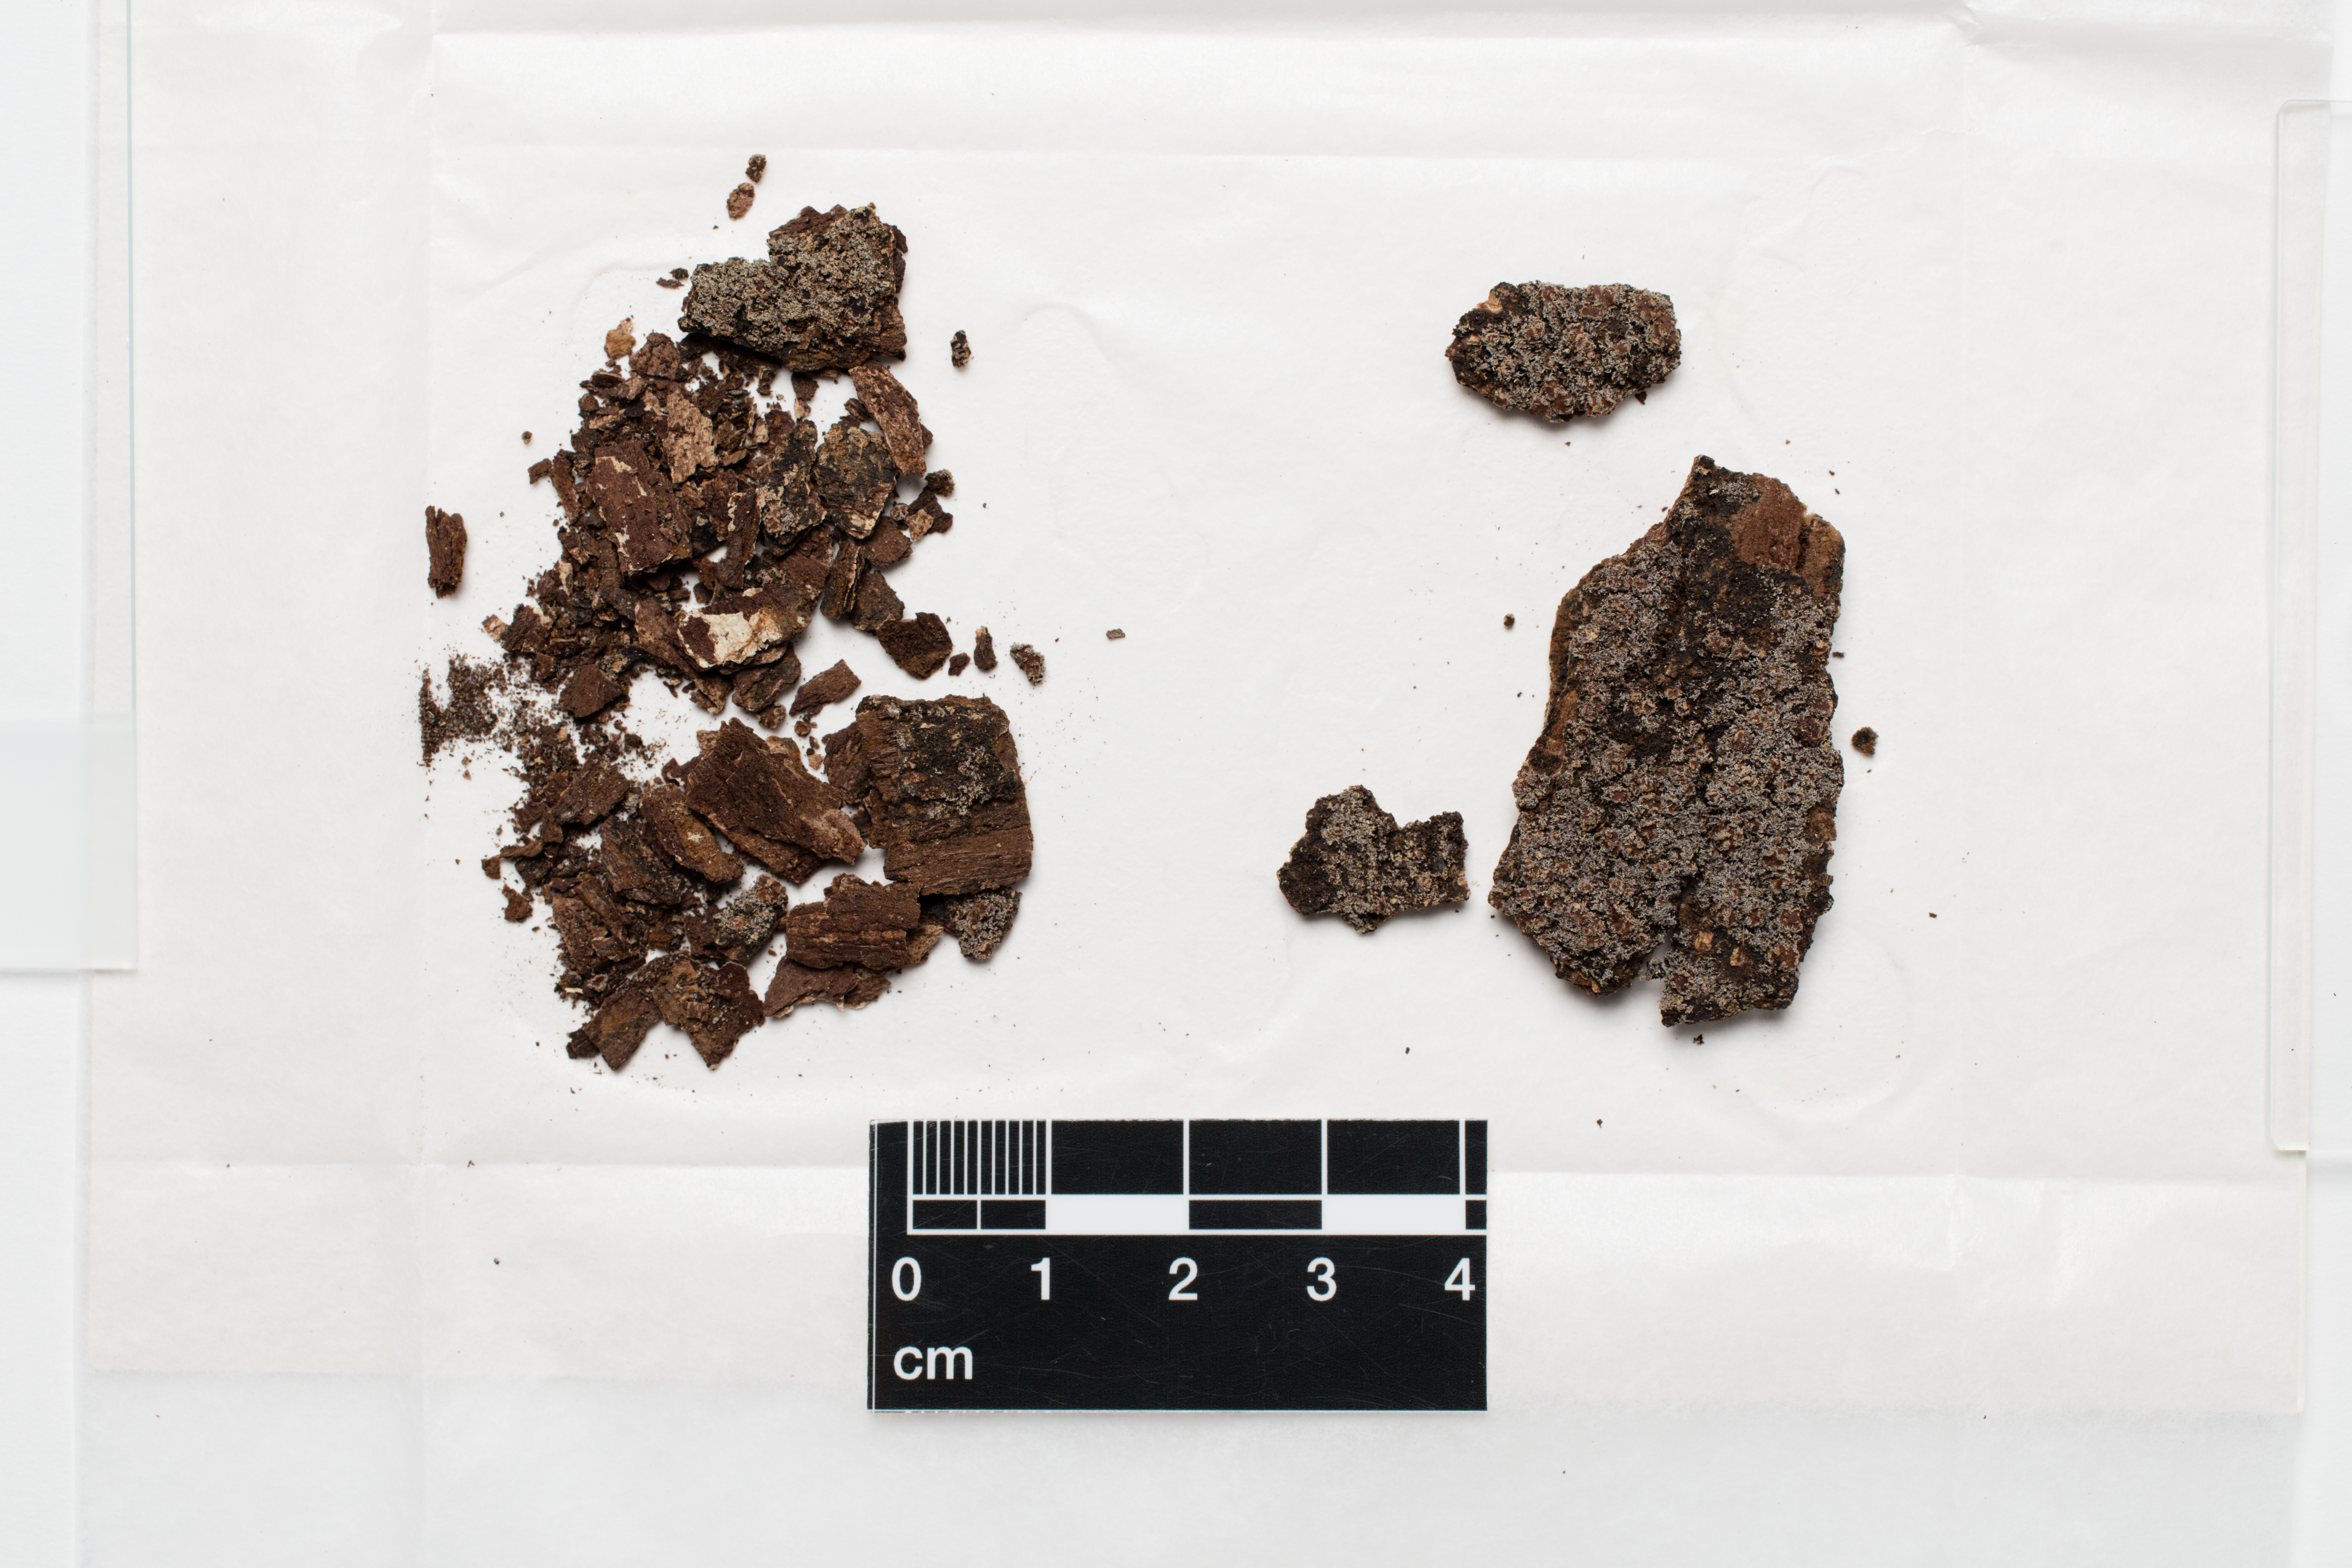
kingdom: Fungi
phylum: Ascomycota
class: Lecanoromycetes
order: Peltigerales
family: Pannariaceae
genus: Pannaria
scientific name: Pannaria crenulata
